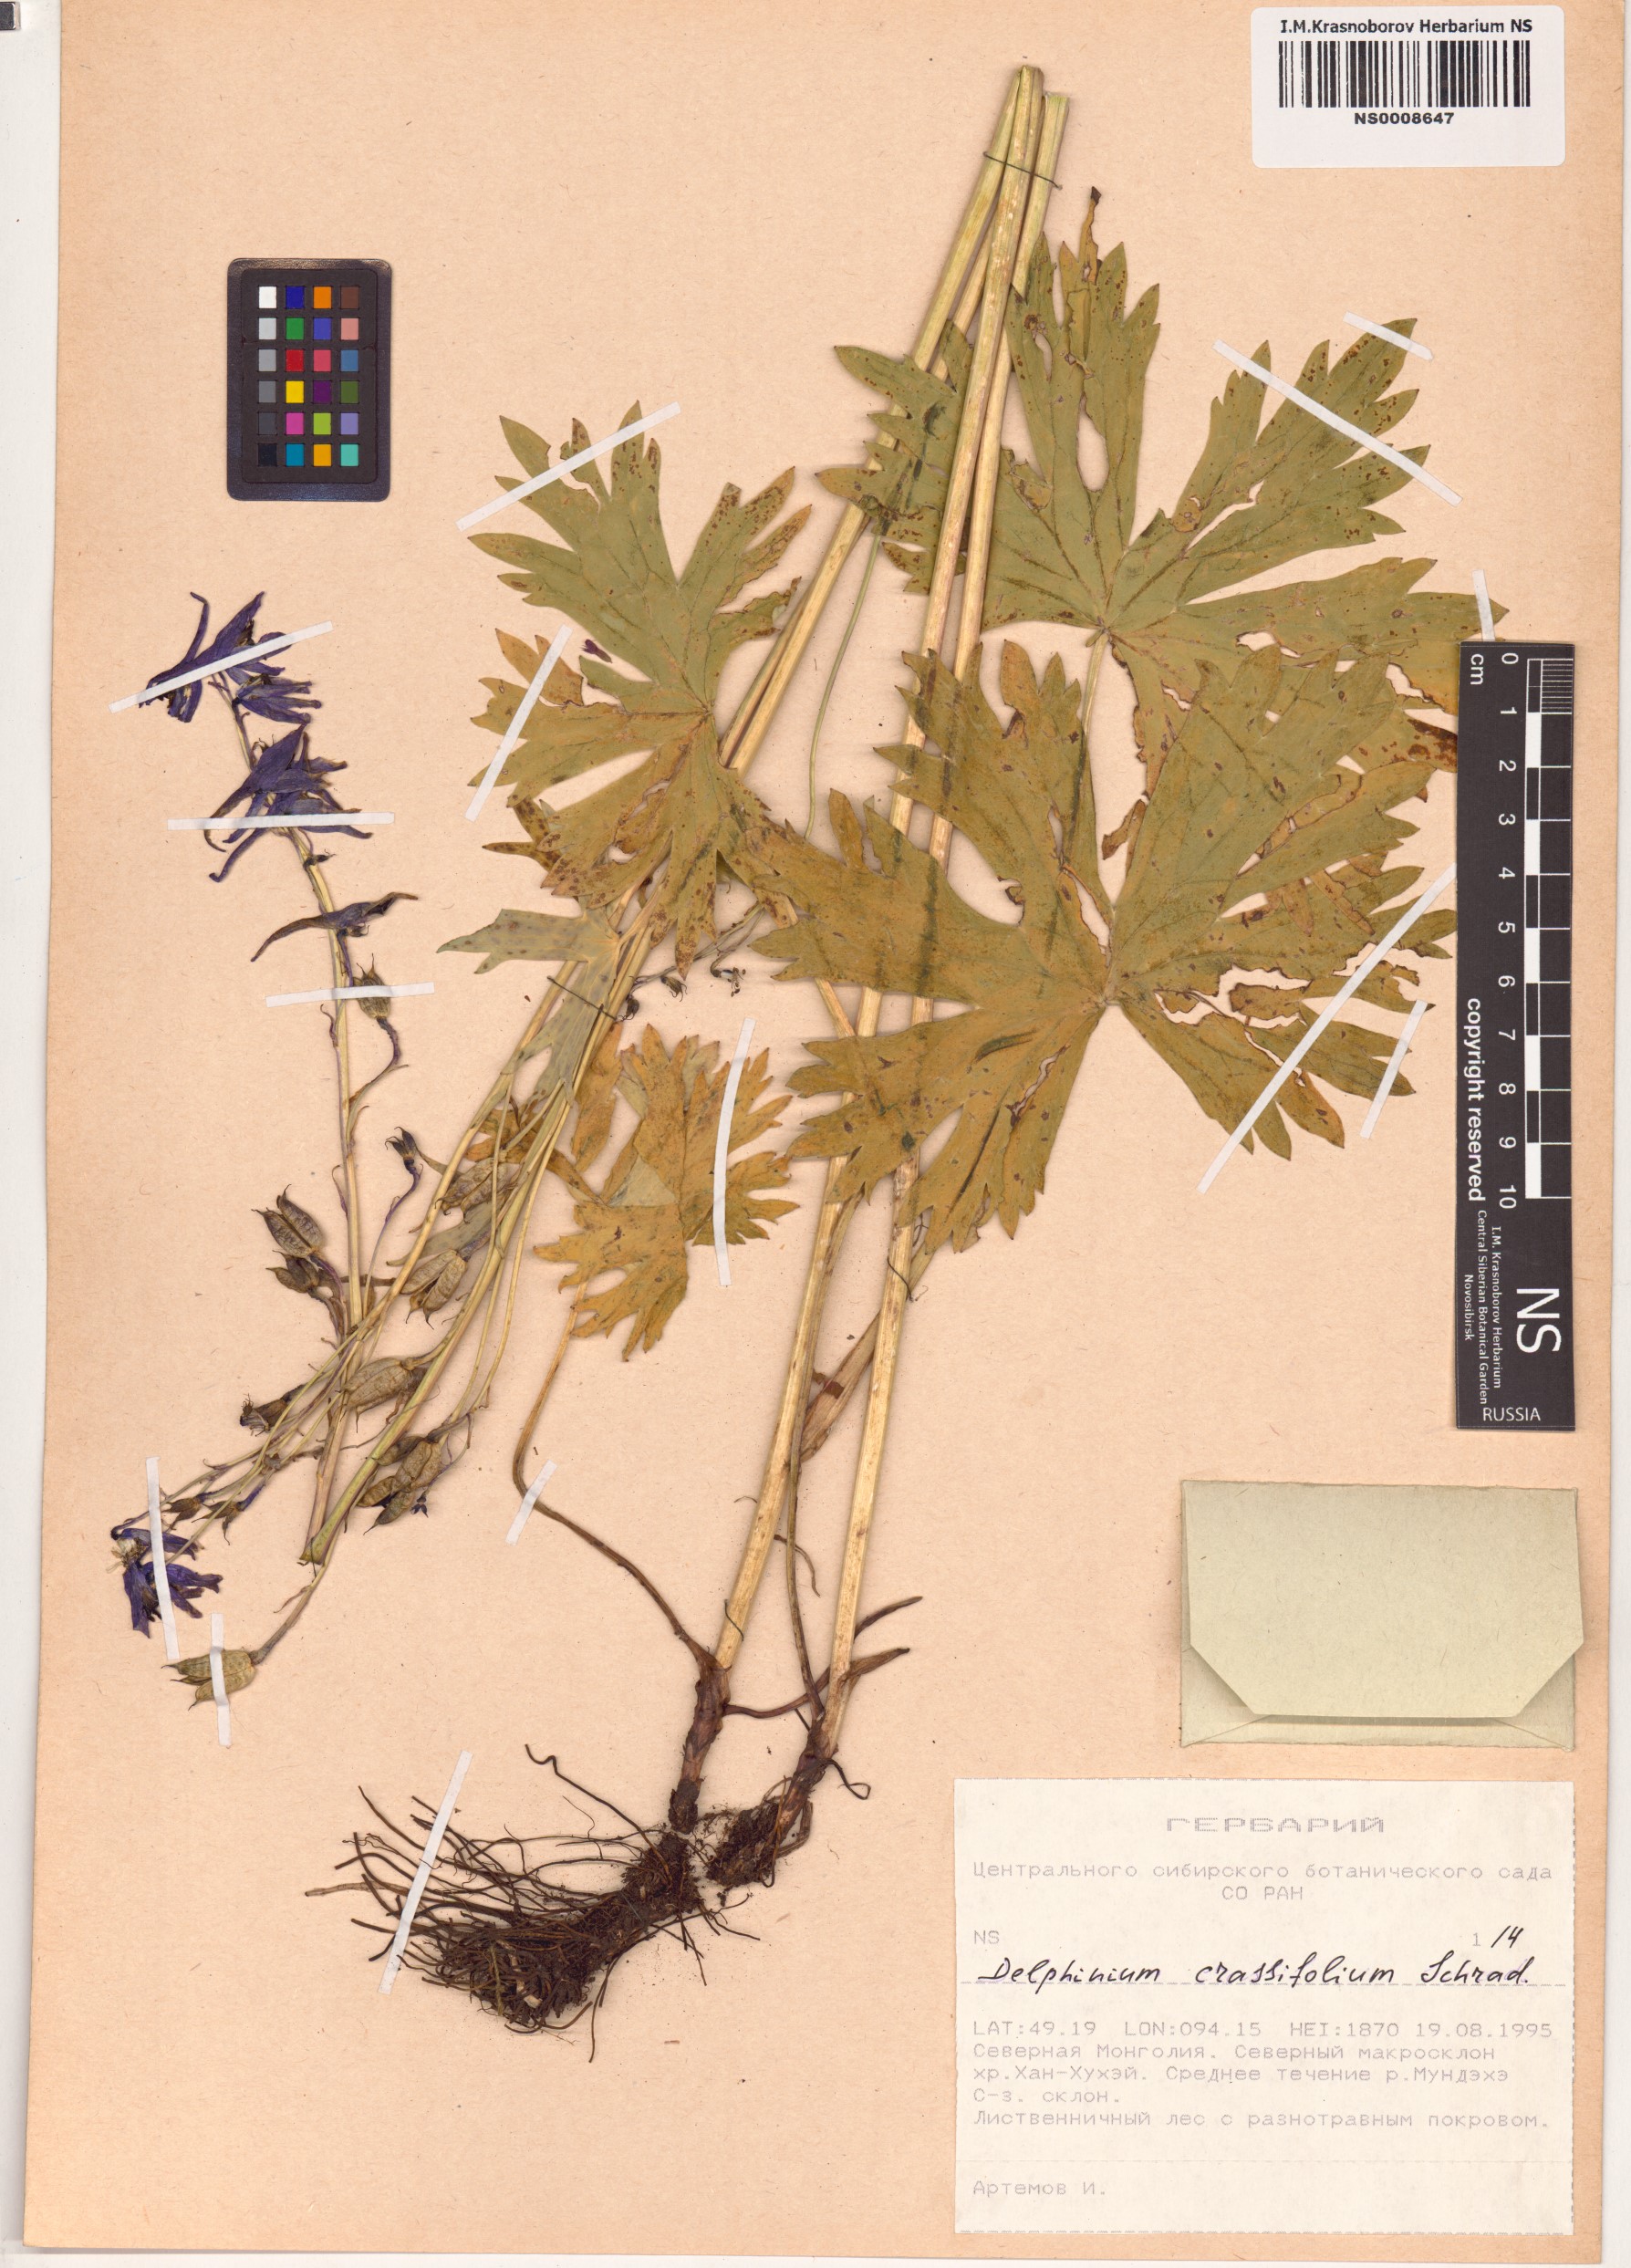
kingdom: Plantae
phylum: Tracheophyta
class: Magnoliopsida
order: Ranunculales
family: Ranunculaceae
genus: Delphinium
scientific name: Delphinium crassifolium
